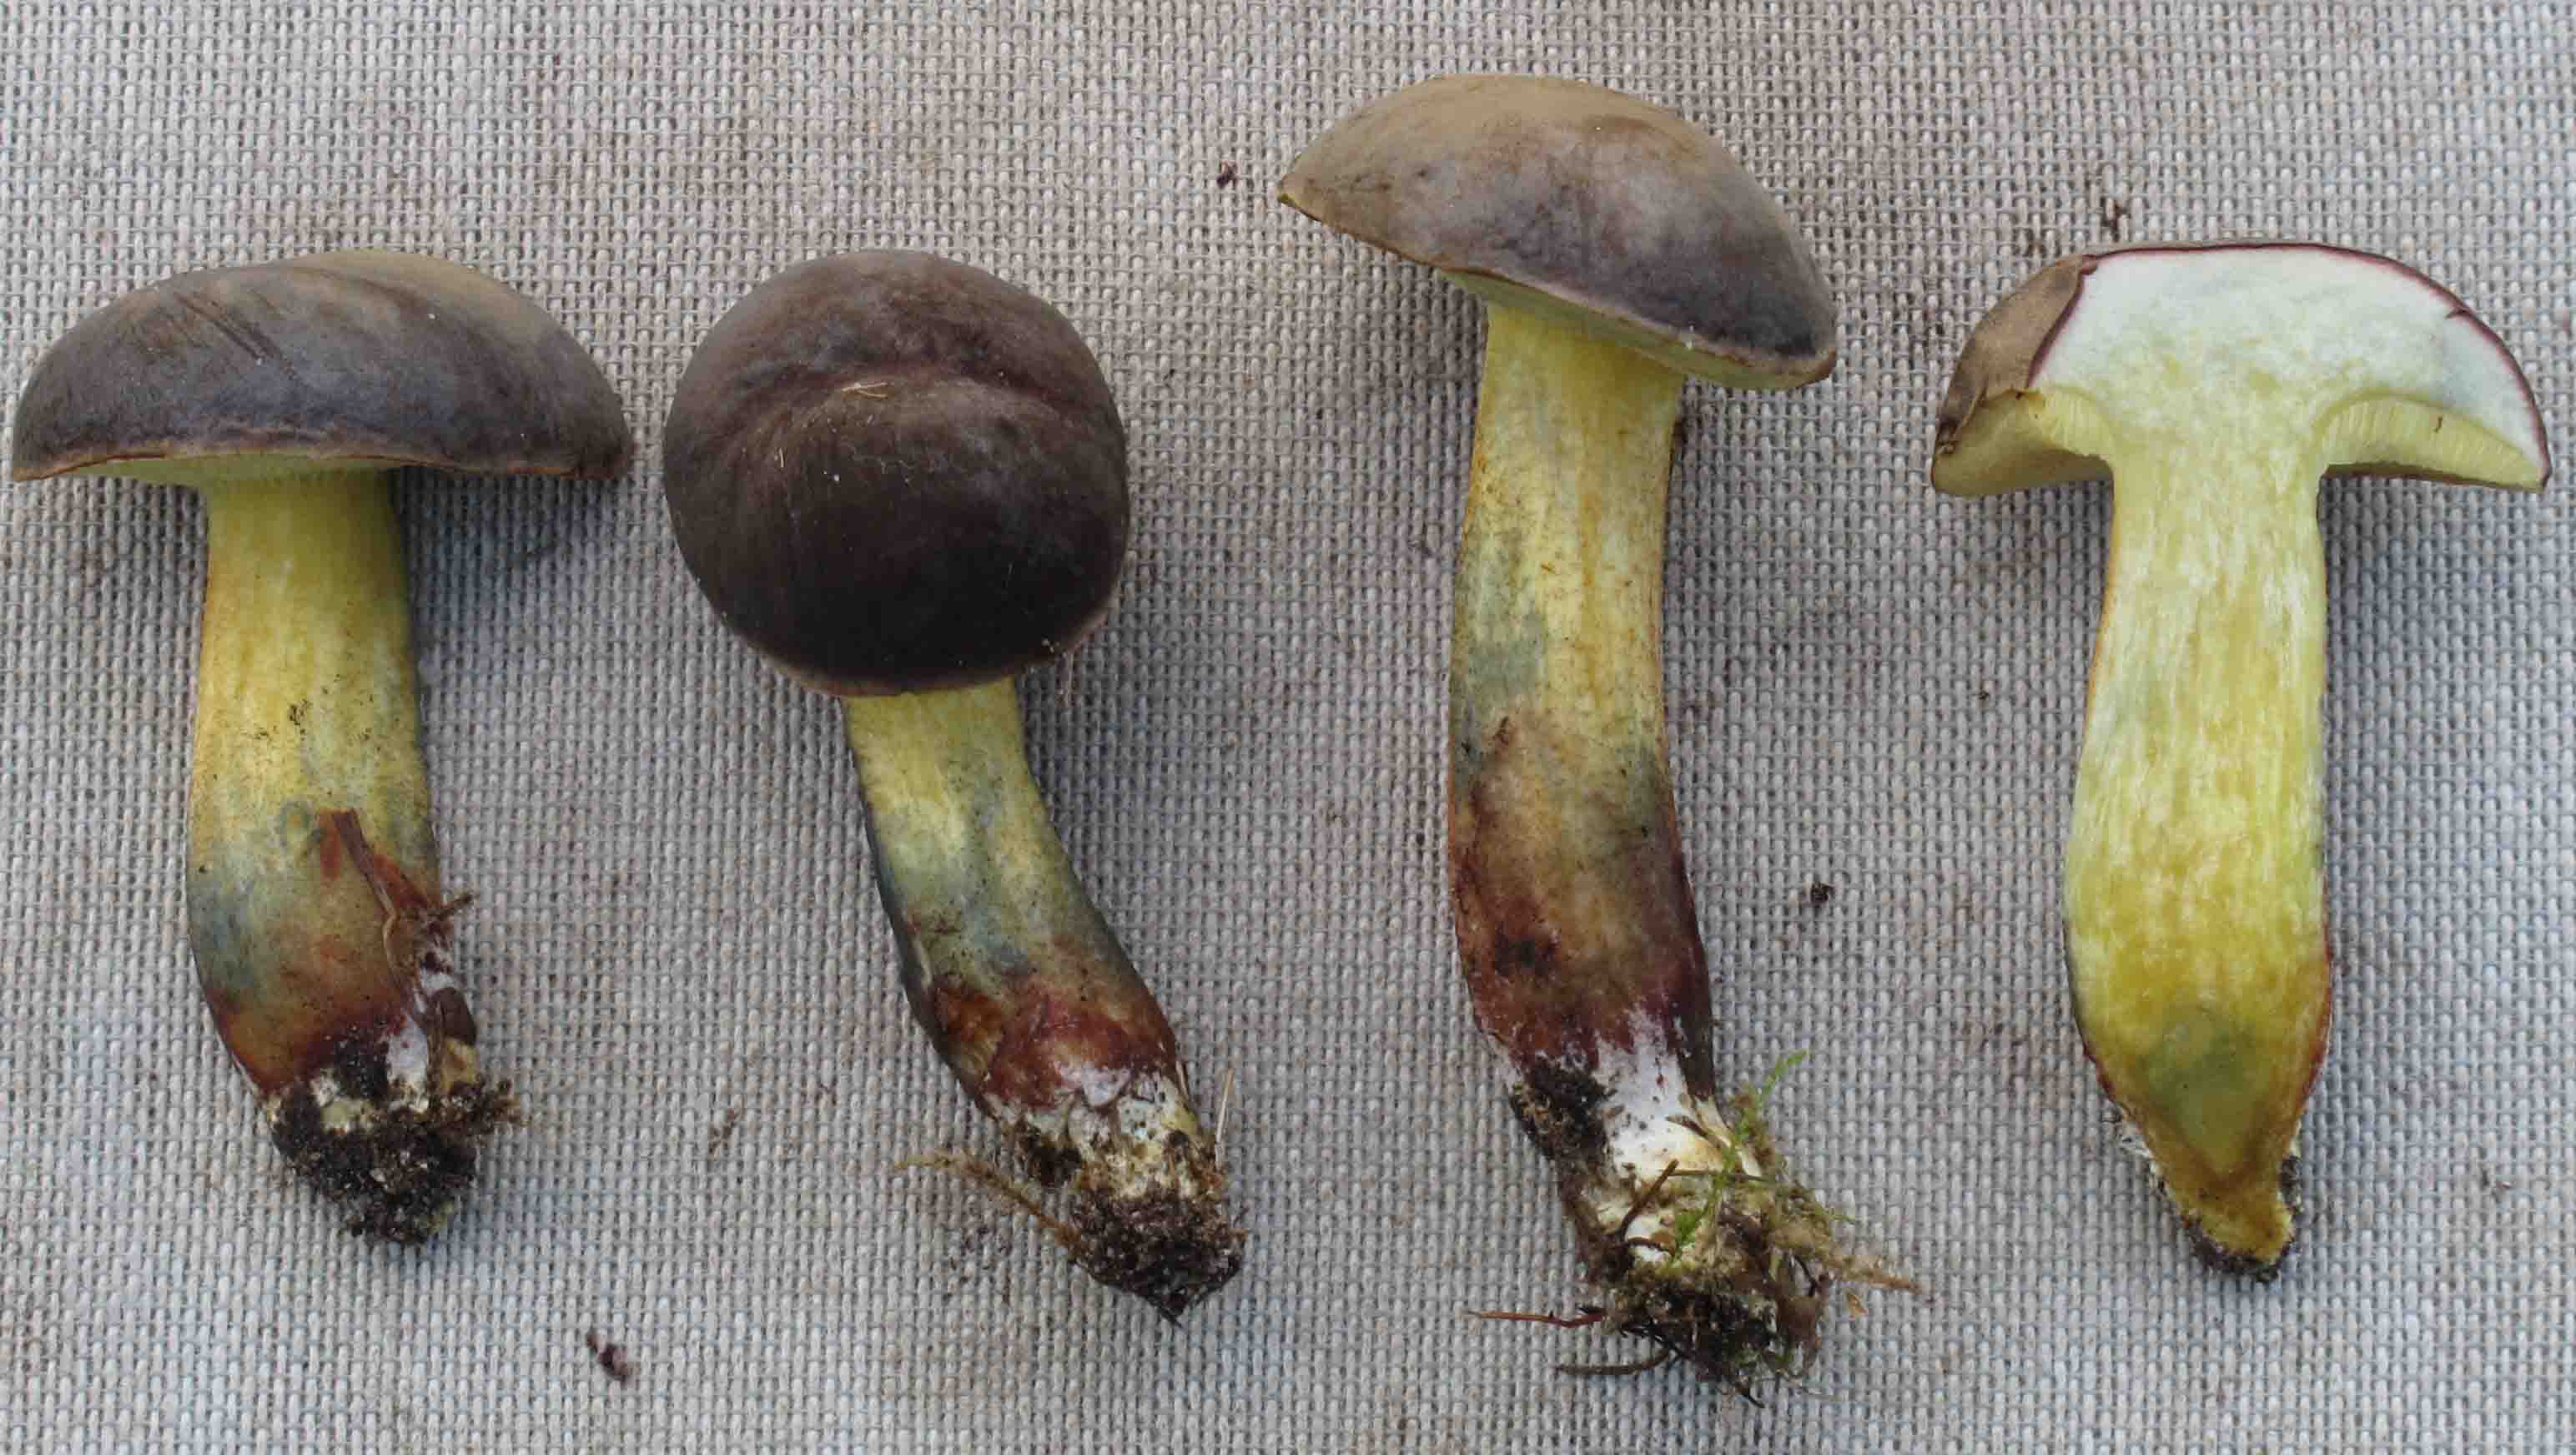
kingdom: Fungi
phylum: Basidiomycota
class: Agaricomycetes
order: Boletales
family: Boletaceae
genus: Xerocomellus
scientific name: Xerocomellus pruinatus
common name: dugget rørhat
